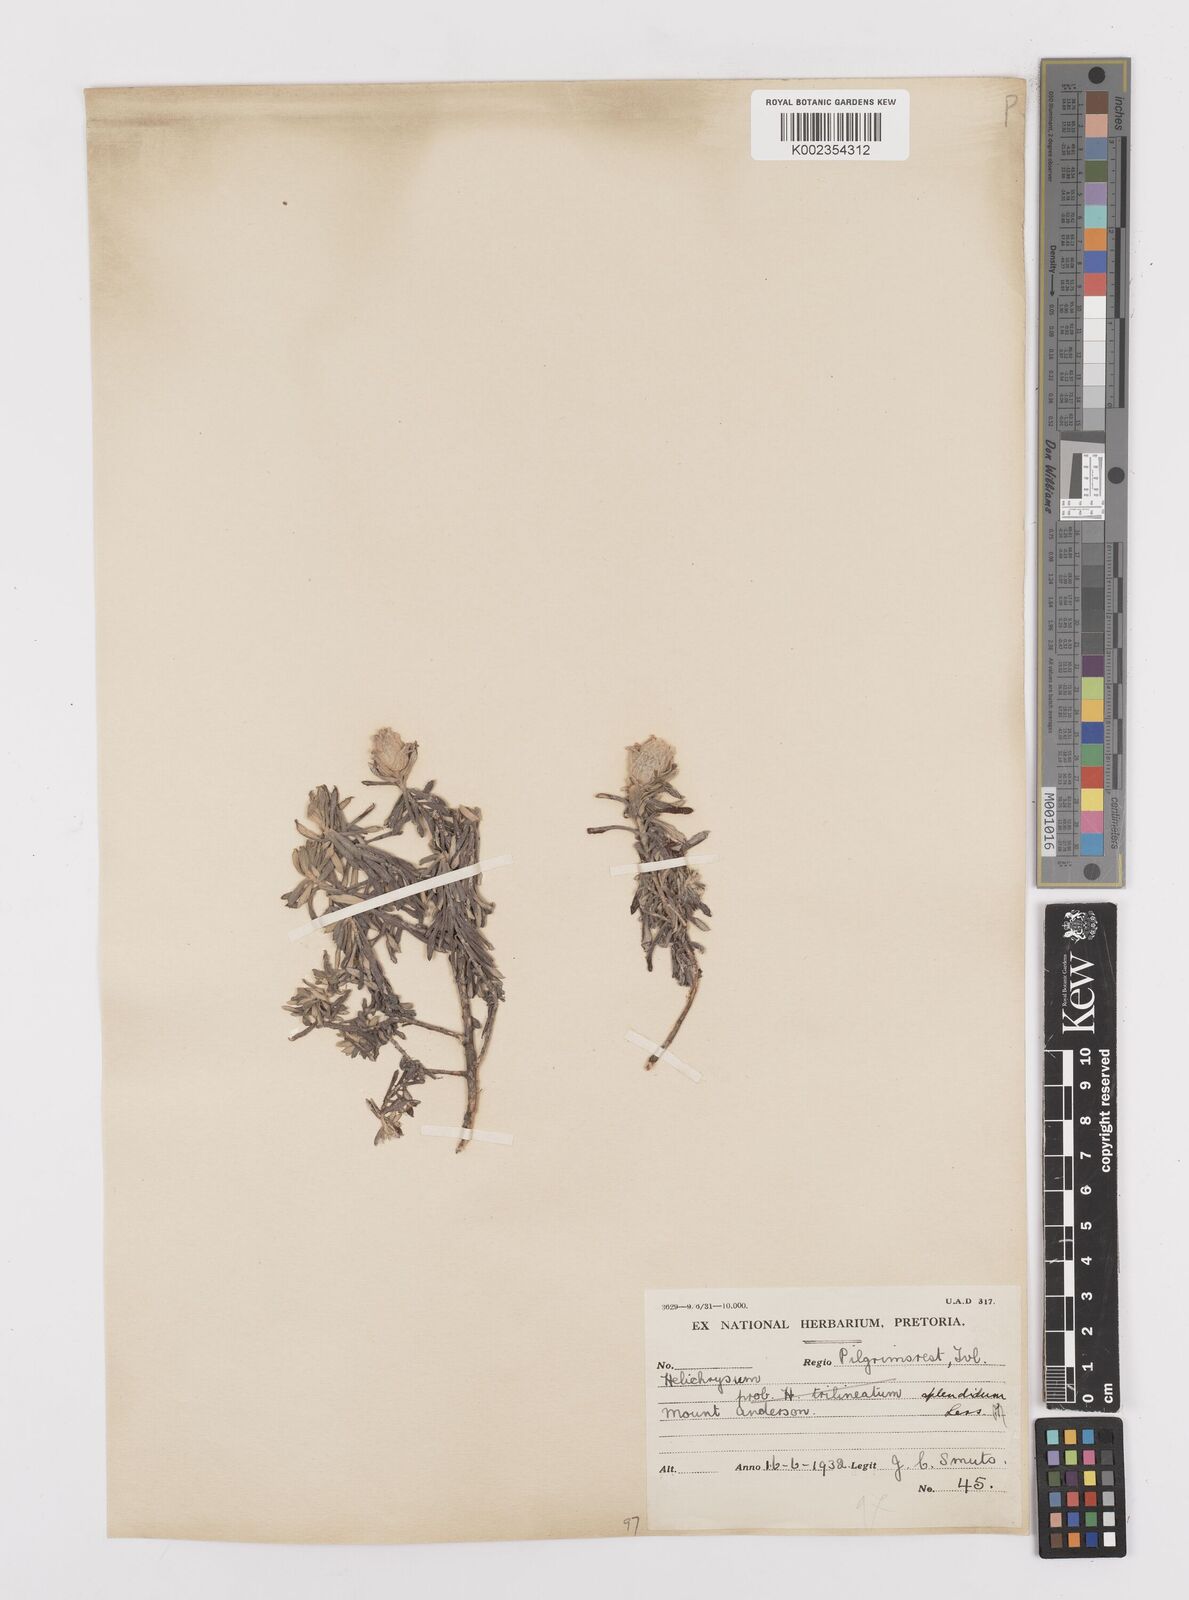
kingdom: Plantae
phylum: Tracheophyta
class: Magnoliopsida
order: Asterales
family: Asteraceae
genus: Helichrysum
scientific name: Helichrysum splendidum
